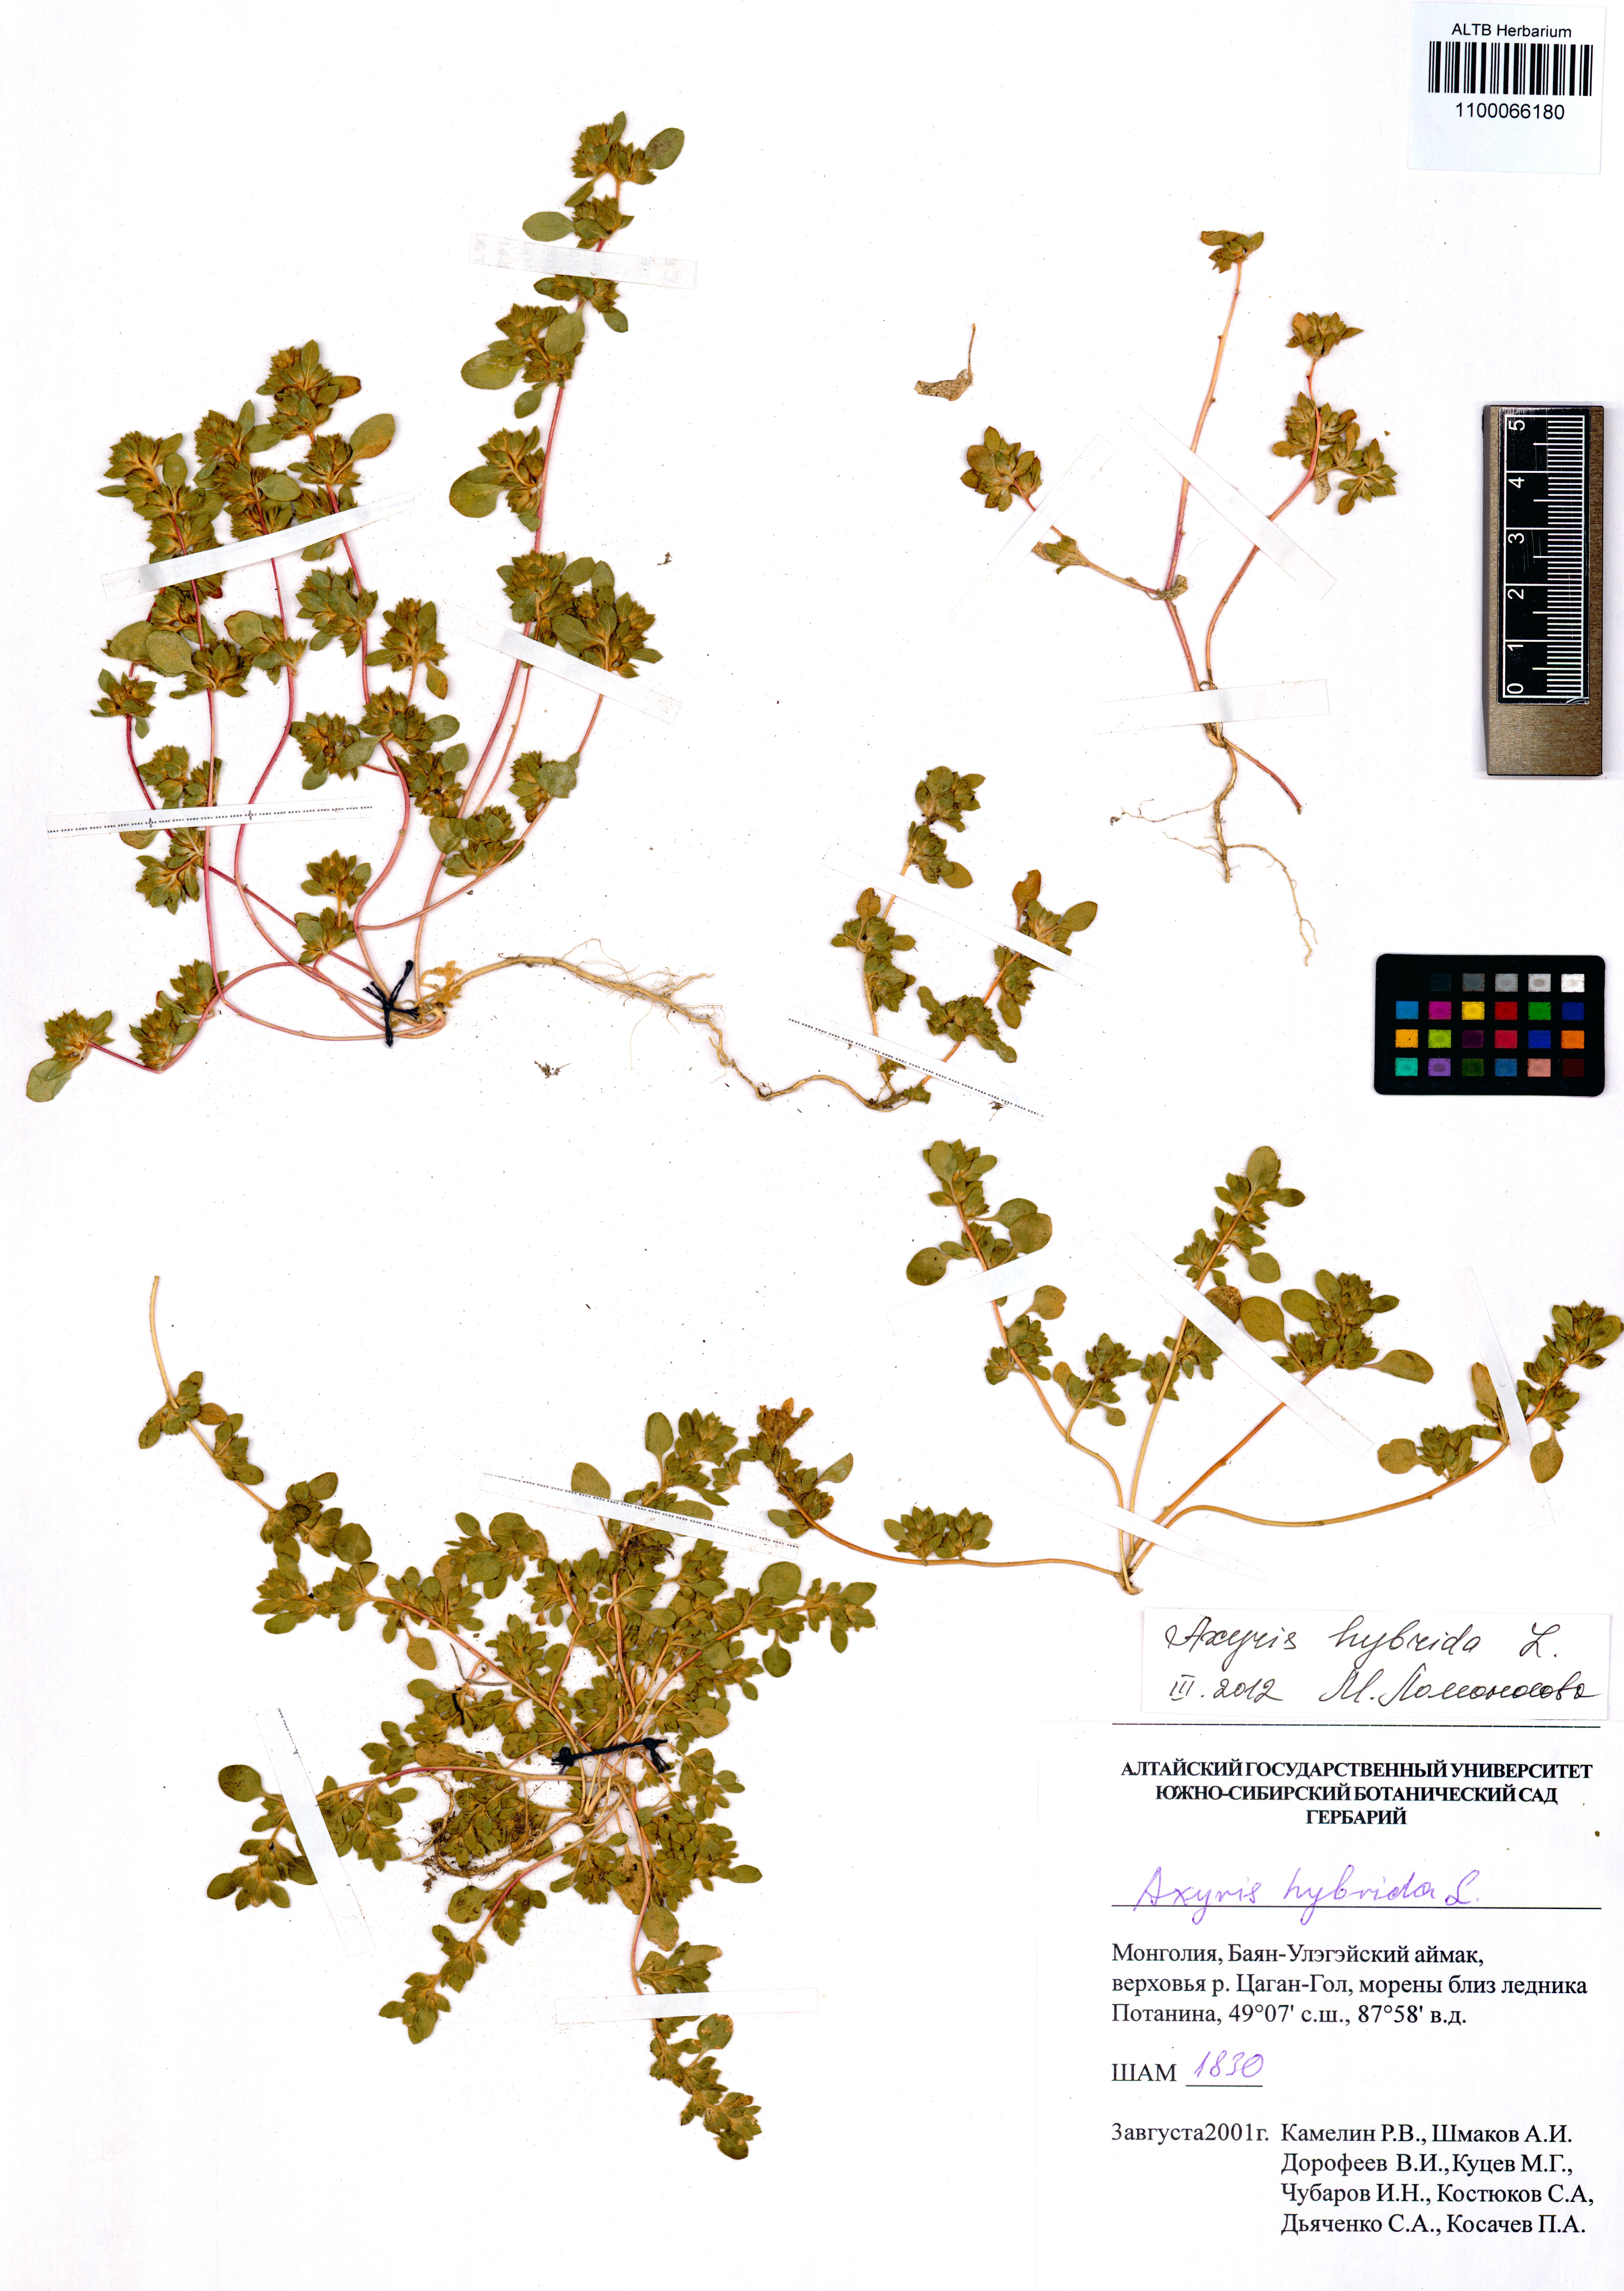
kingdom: Plantae
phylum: Tracheophyta
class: Magnoliopsida
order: Caryophyllales
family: Amaranthaceae
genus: Axyris
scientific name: Axyris hybrida
